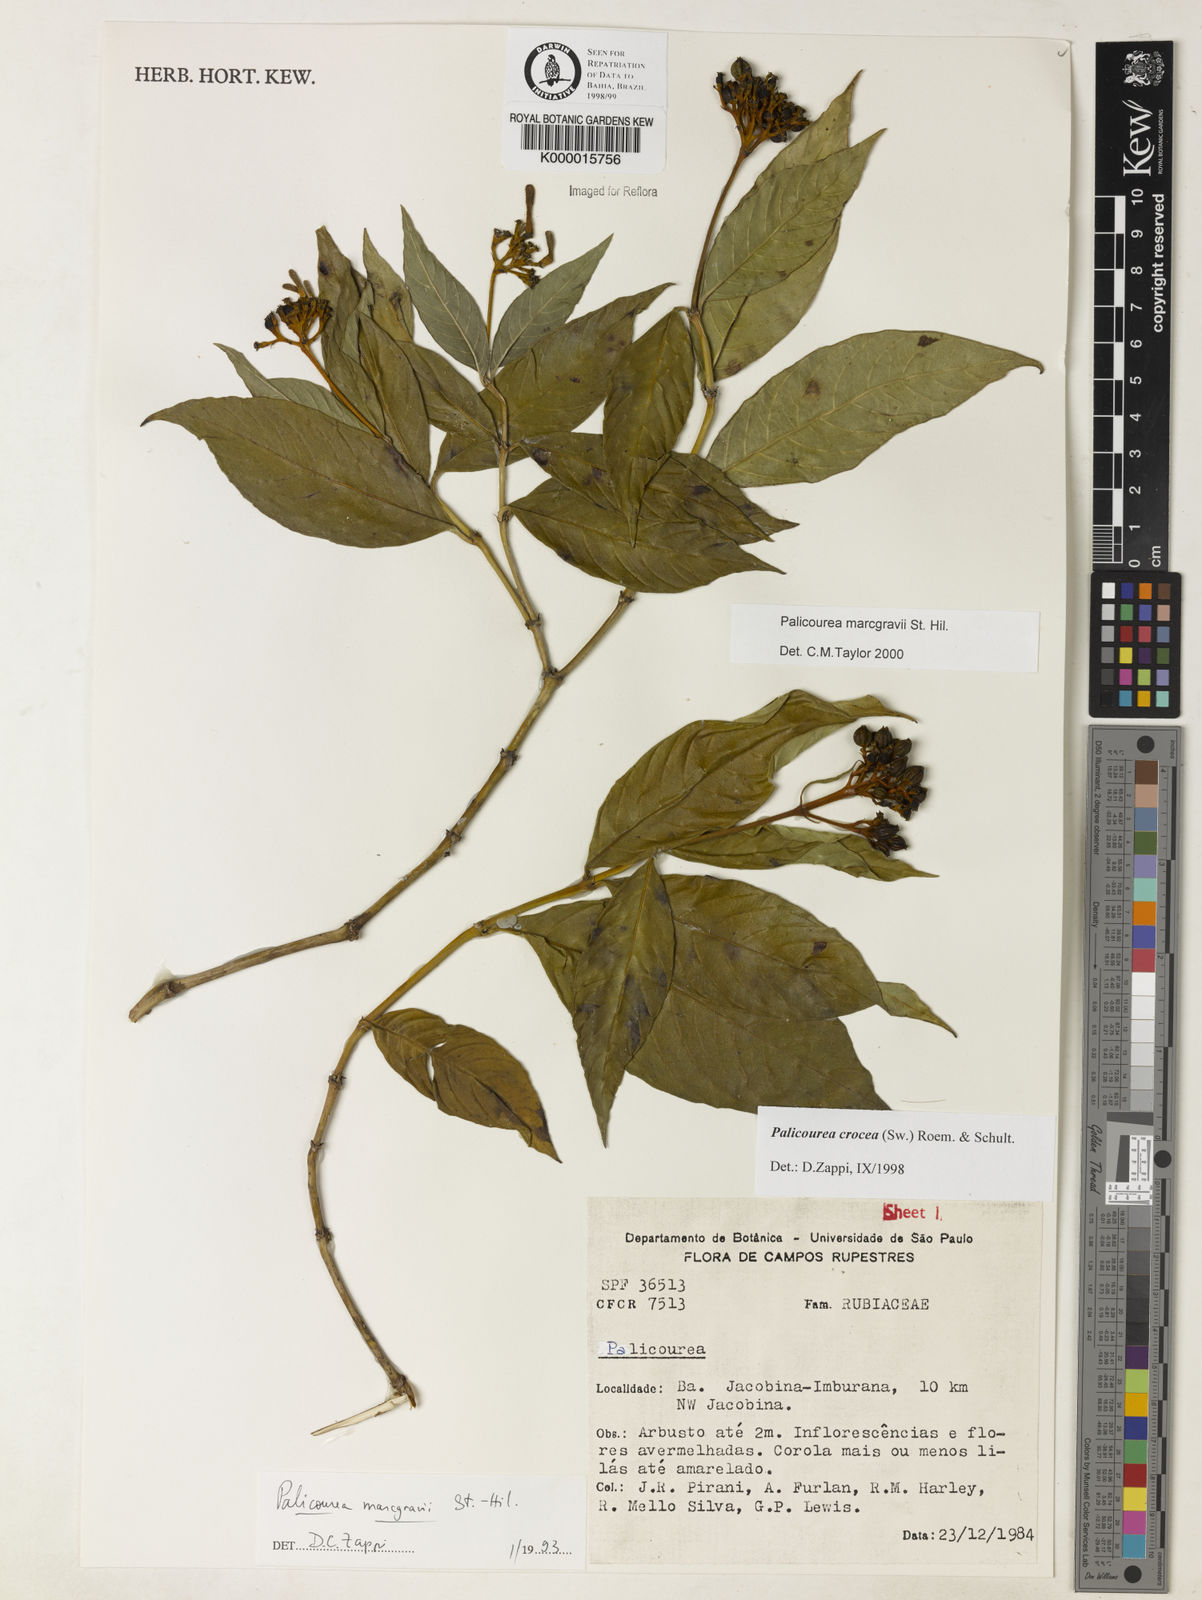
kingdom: Plantae
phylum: Tracheophyta
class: Magnoliopsida
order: Gentianales
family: Rubiaceae
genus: Palicourea
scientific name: Palicourea marcgravii
